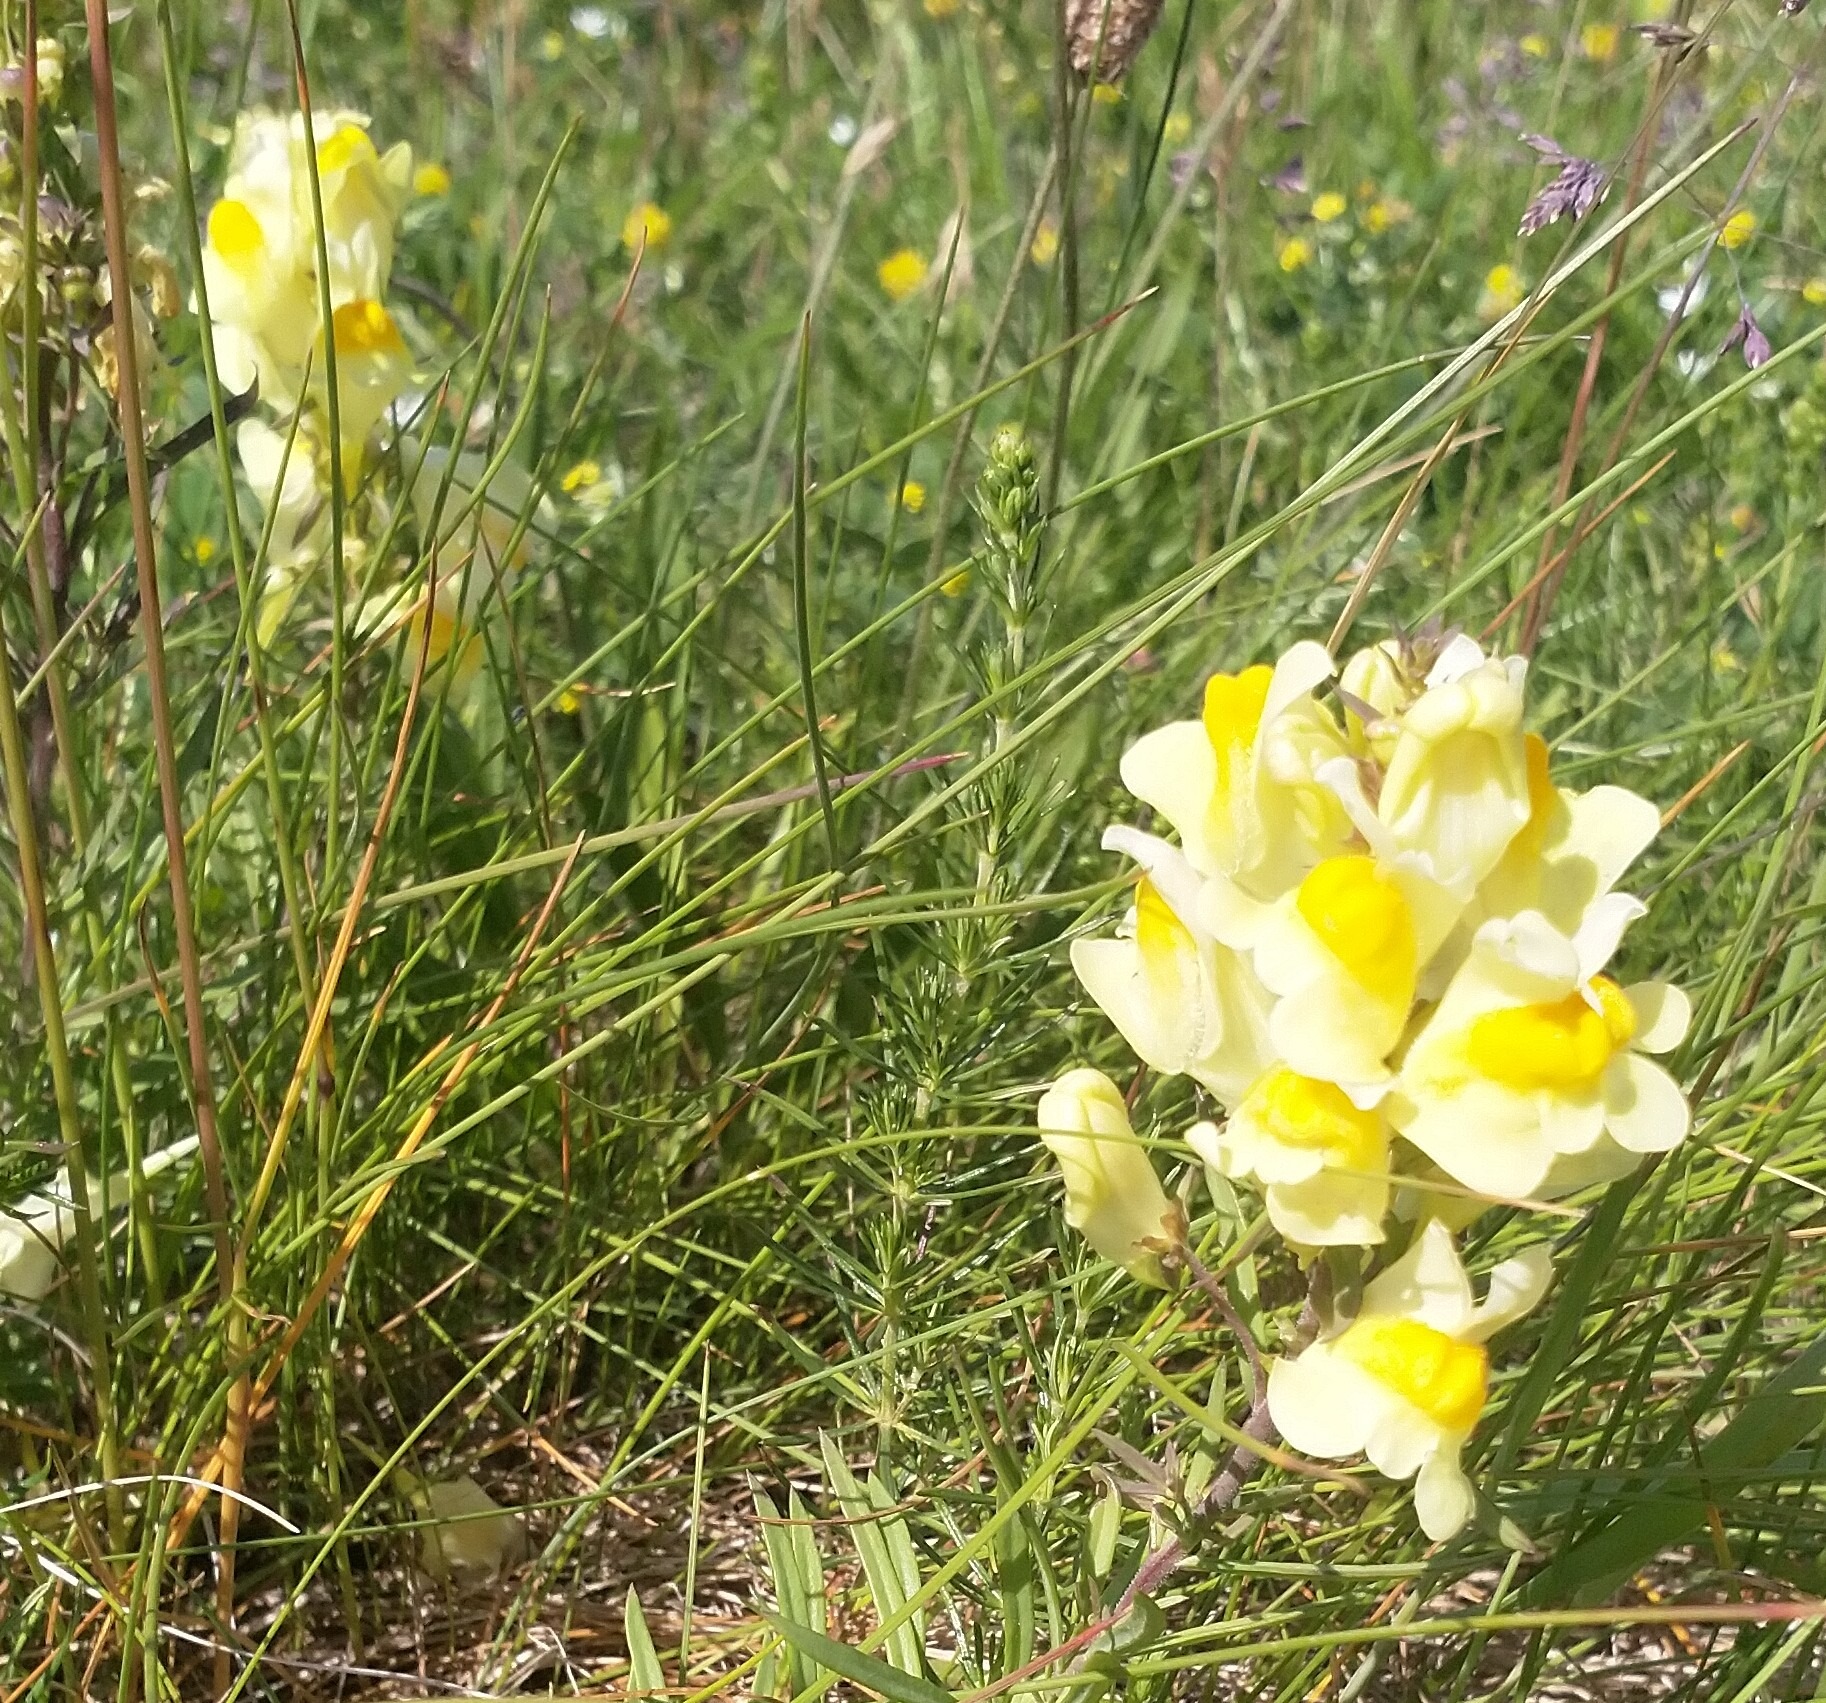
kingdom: Plantae
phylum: Tracheophyta
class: Magnoliopsida
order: Lamiales
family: Plantaginaceae
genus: Linaria
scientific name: Linaria vulgaris
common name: Almindelig torskemund
